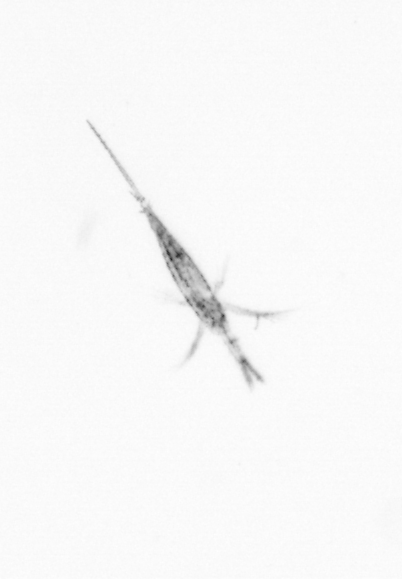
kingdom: Animalia
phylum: Arthropoda
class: Copepoda
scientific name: Copepoda
